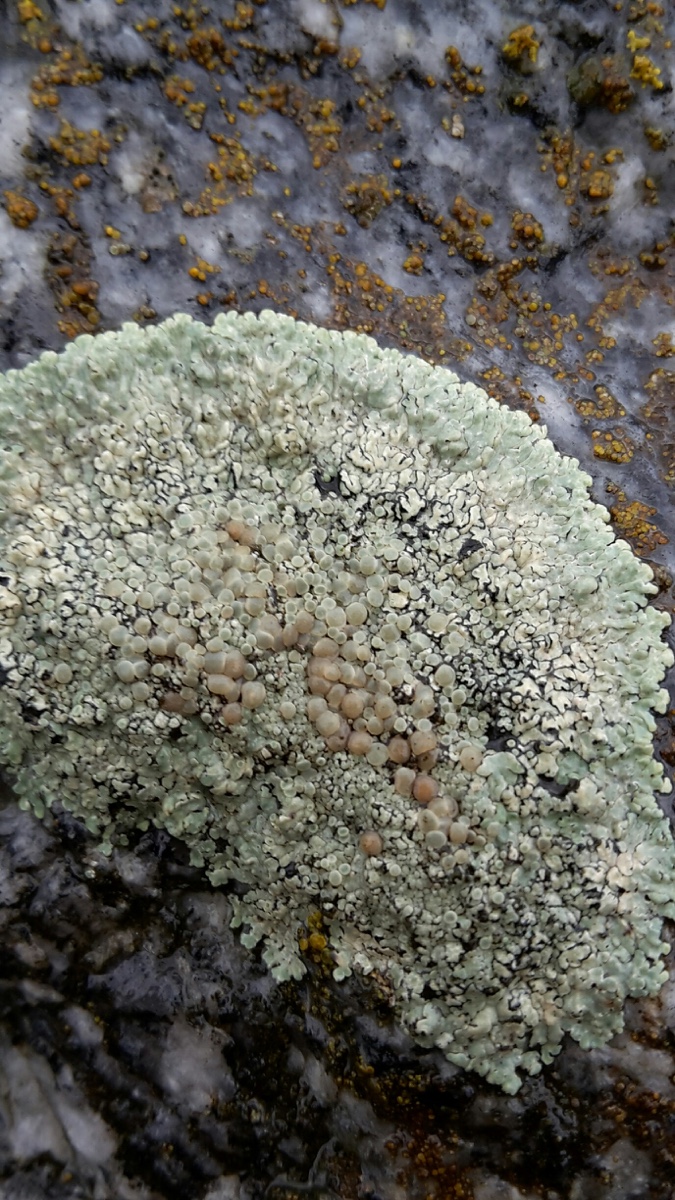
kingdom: Fungi
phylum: Ascomycota
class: Lecanoromycetes
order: Lecanorales
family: Lecanoraceae
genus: Protoparmeliopsis
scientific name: Protoparmeliopsis muralis
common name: randfliget kantskivelav
